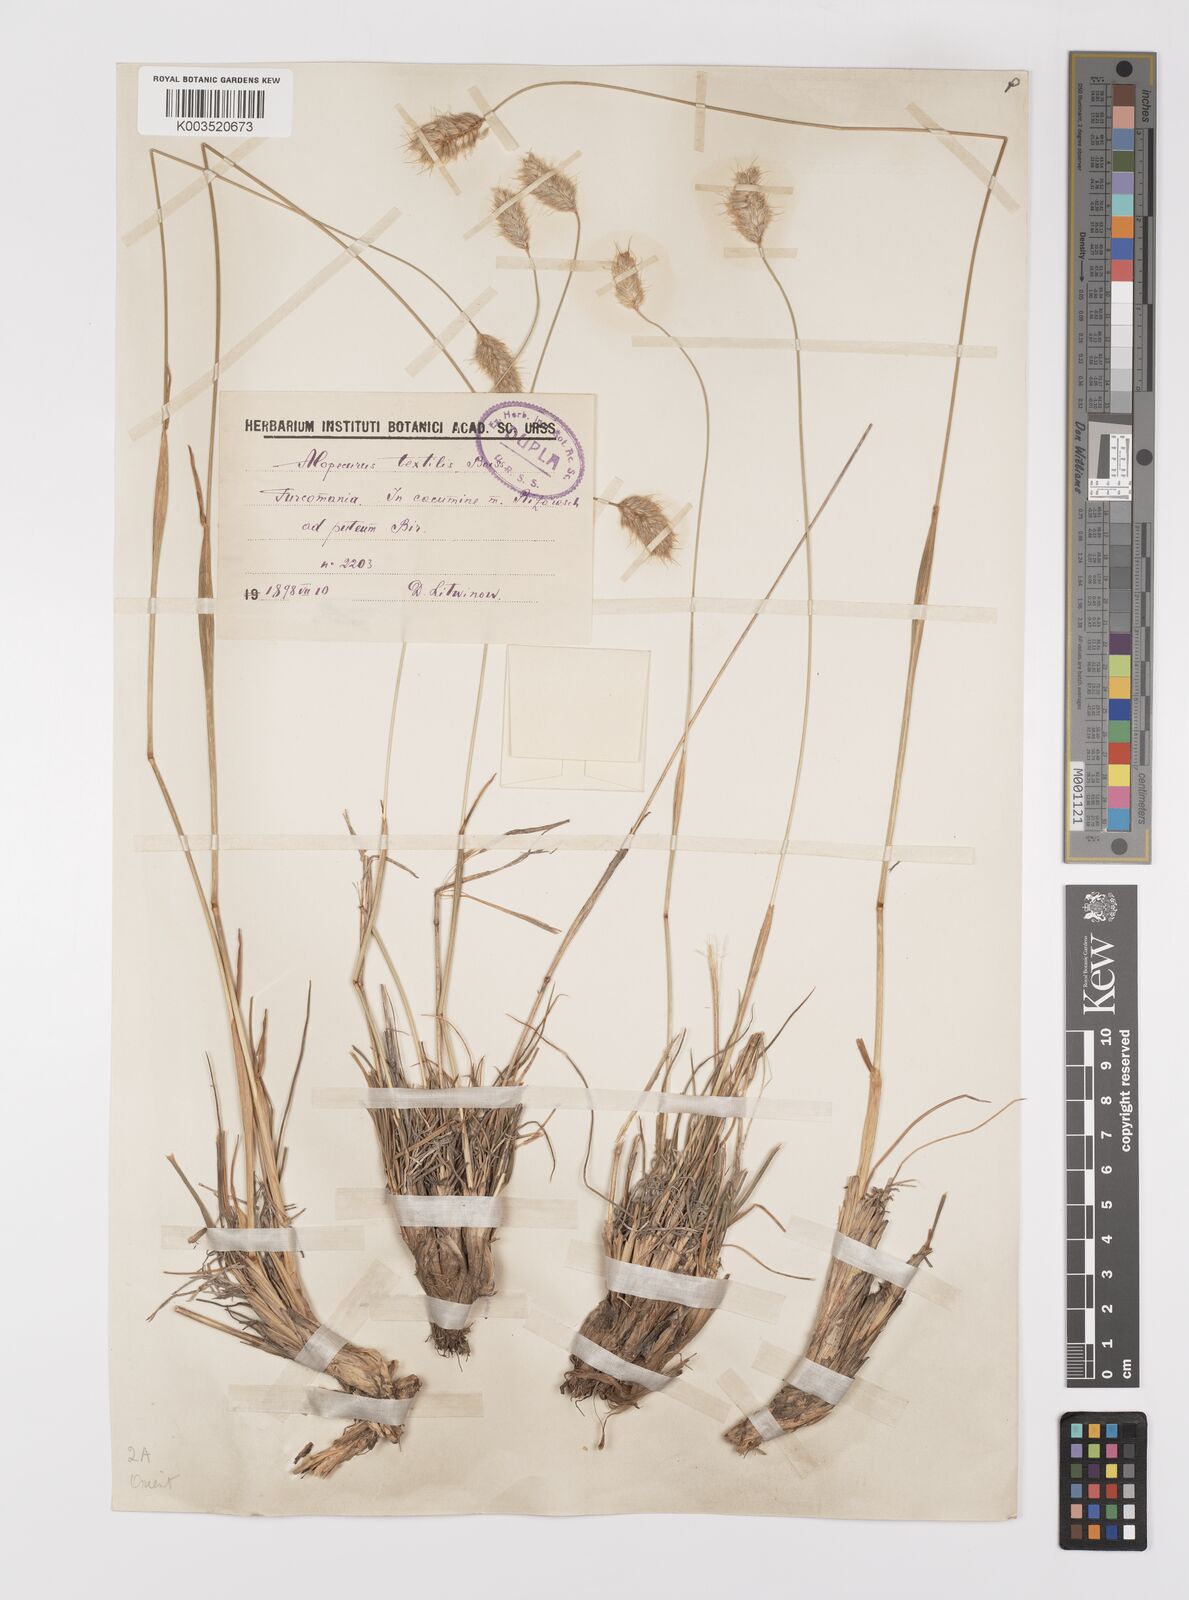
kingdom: Plantae
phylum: Tracheophyta
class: Liliopsida
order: Poales
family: Poaceae
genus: Alopecurus
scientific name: Alopecurus textilis
